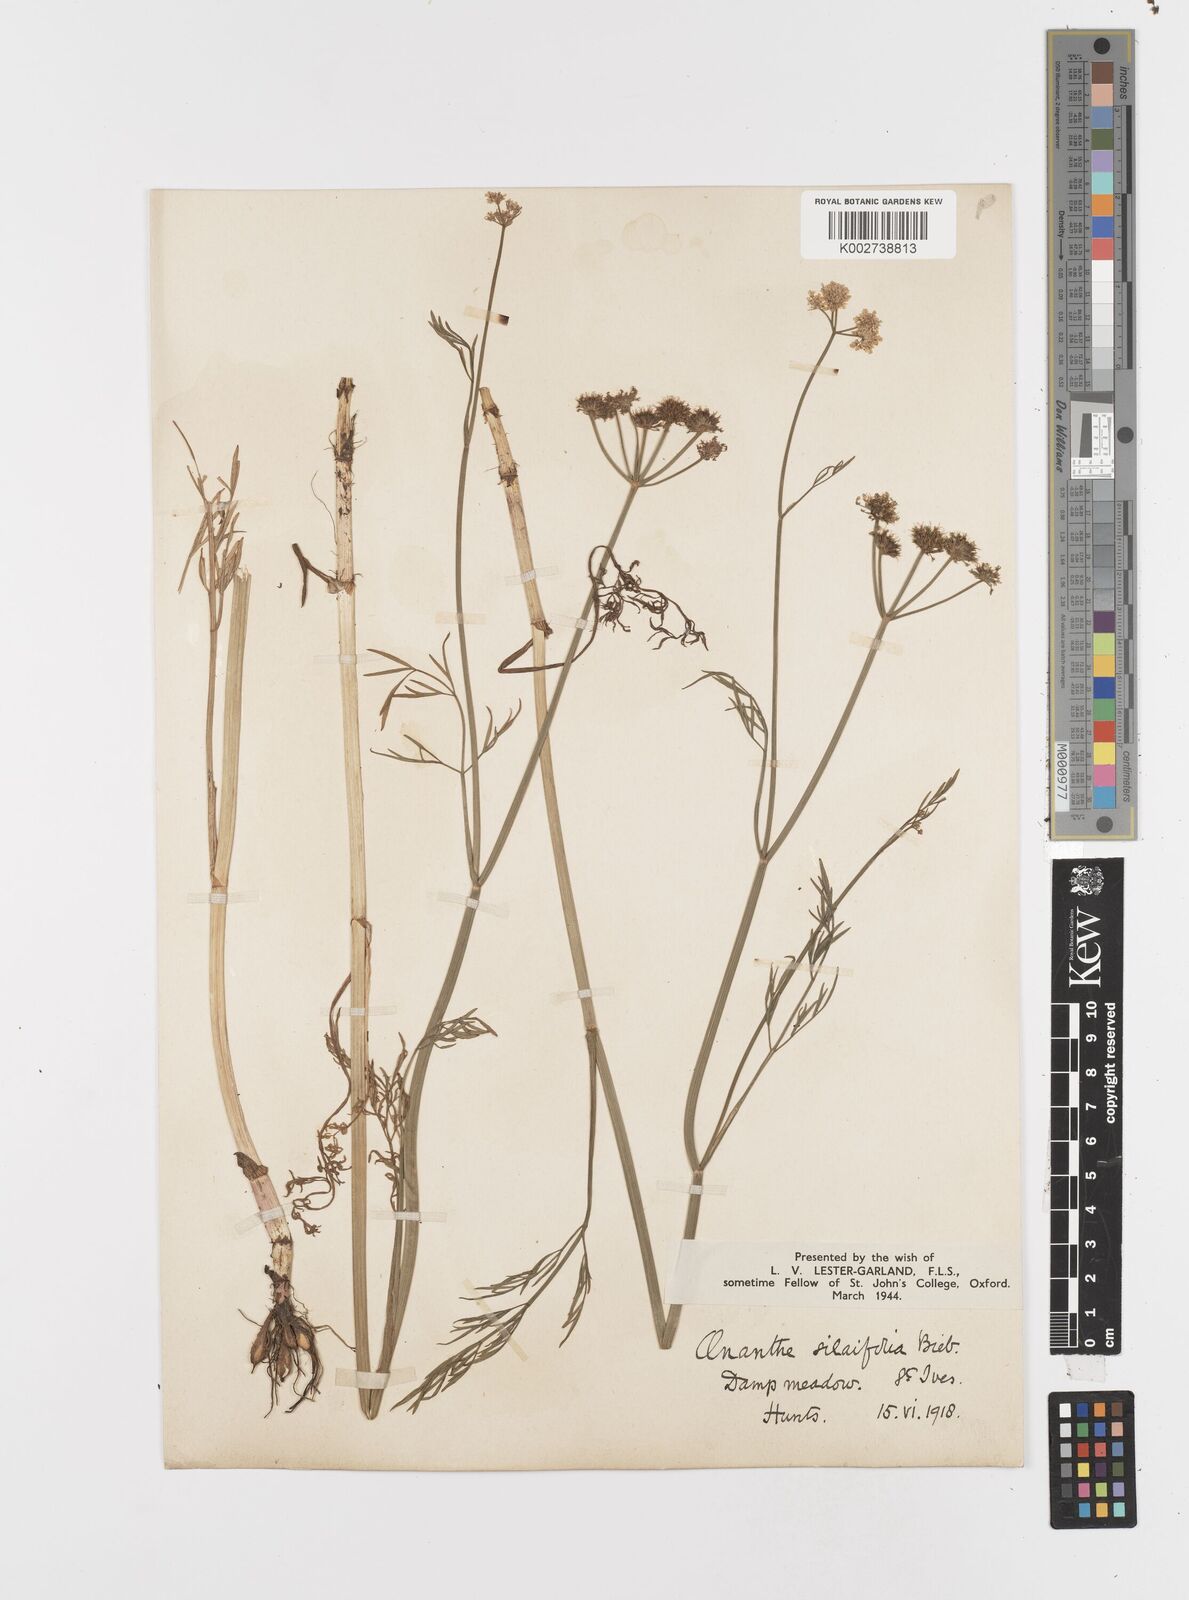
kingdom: Plantae
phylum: Tracheophyta
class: Magnoliopsida
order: Apiales
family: Apiaceae
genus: Oenanthe
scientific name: Oenanthe silaifolia
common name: Narrow-leaved water-dropwort
